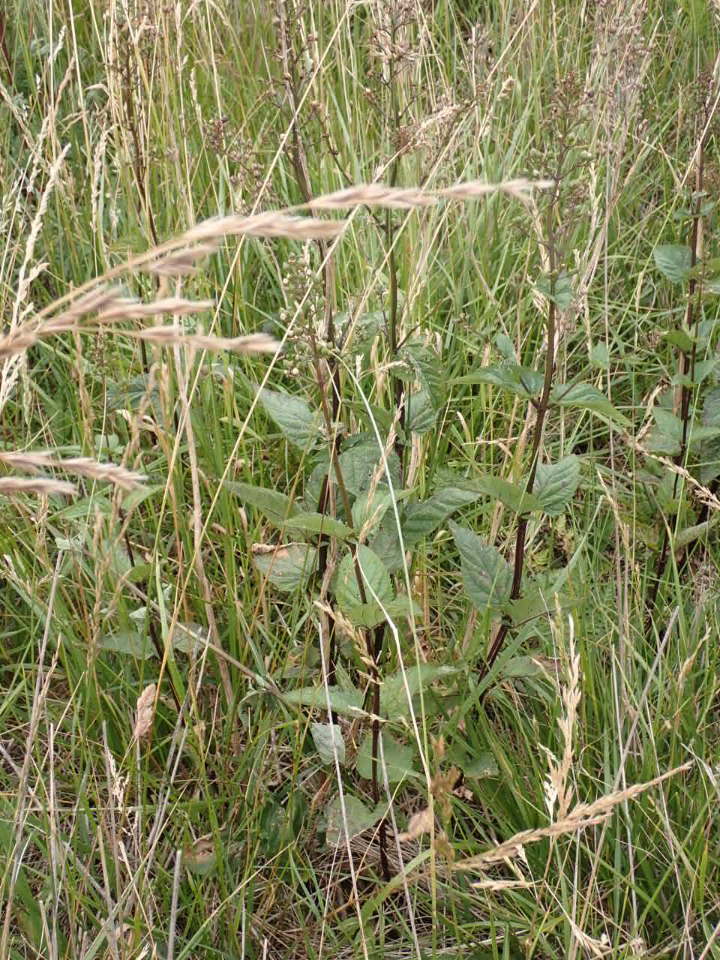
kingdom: Plantae
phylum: Tracheophyta
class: Magnoliopsida
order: Lamiales
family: Scrophulariaceae
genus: Scrophularia
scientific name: Scrophularia nodosa
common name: Knoldet brunrod
